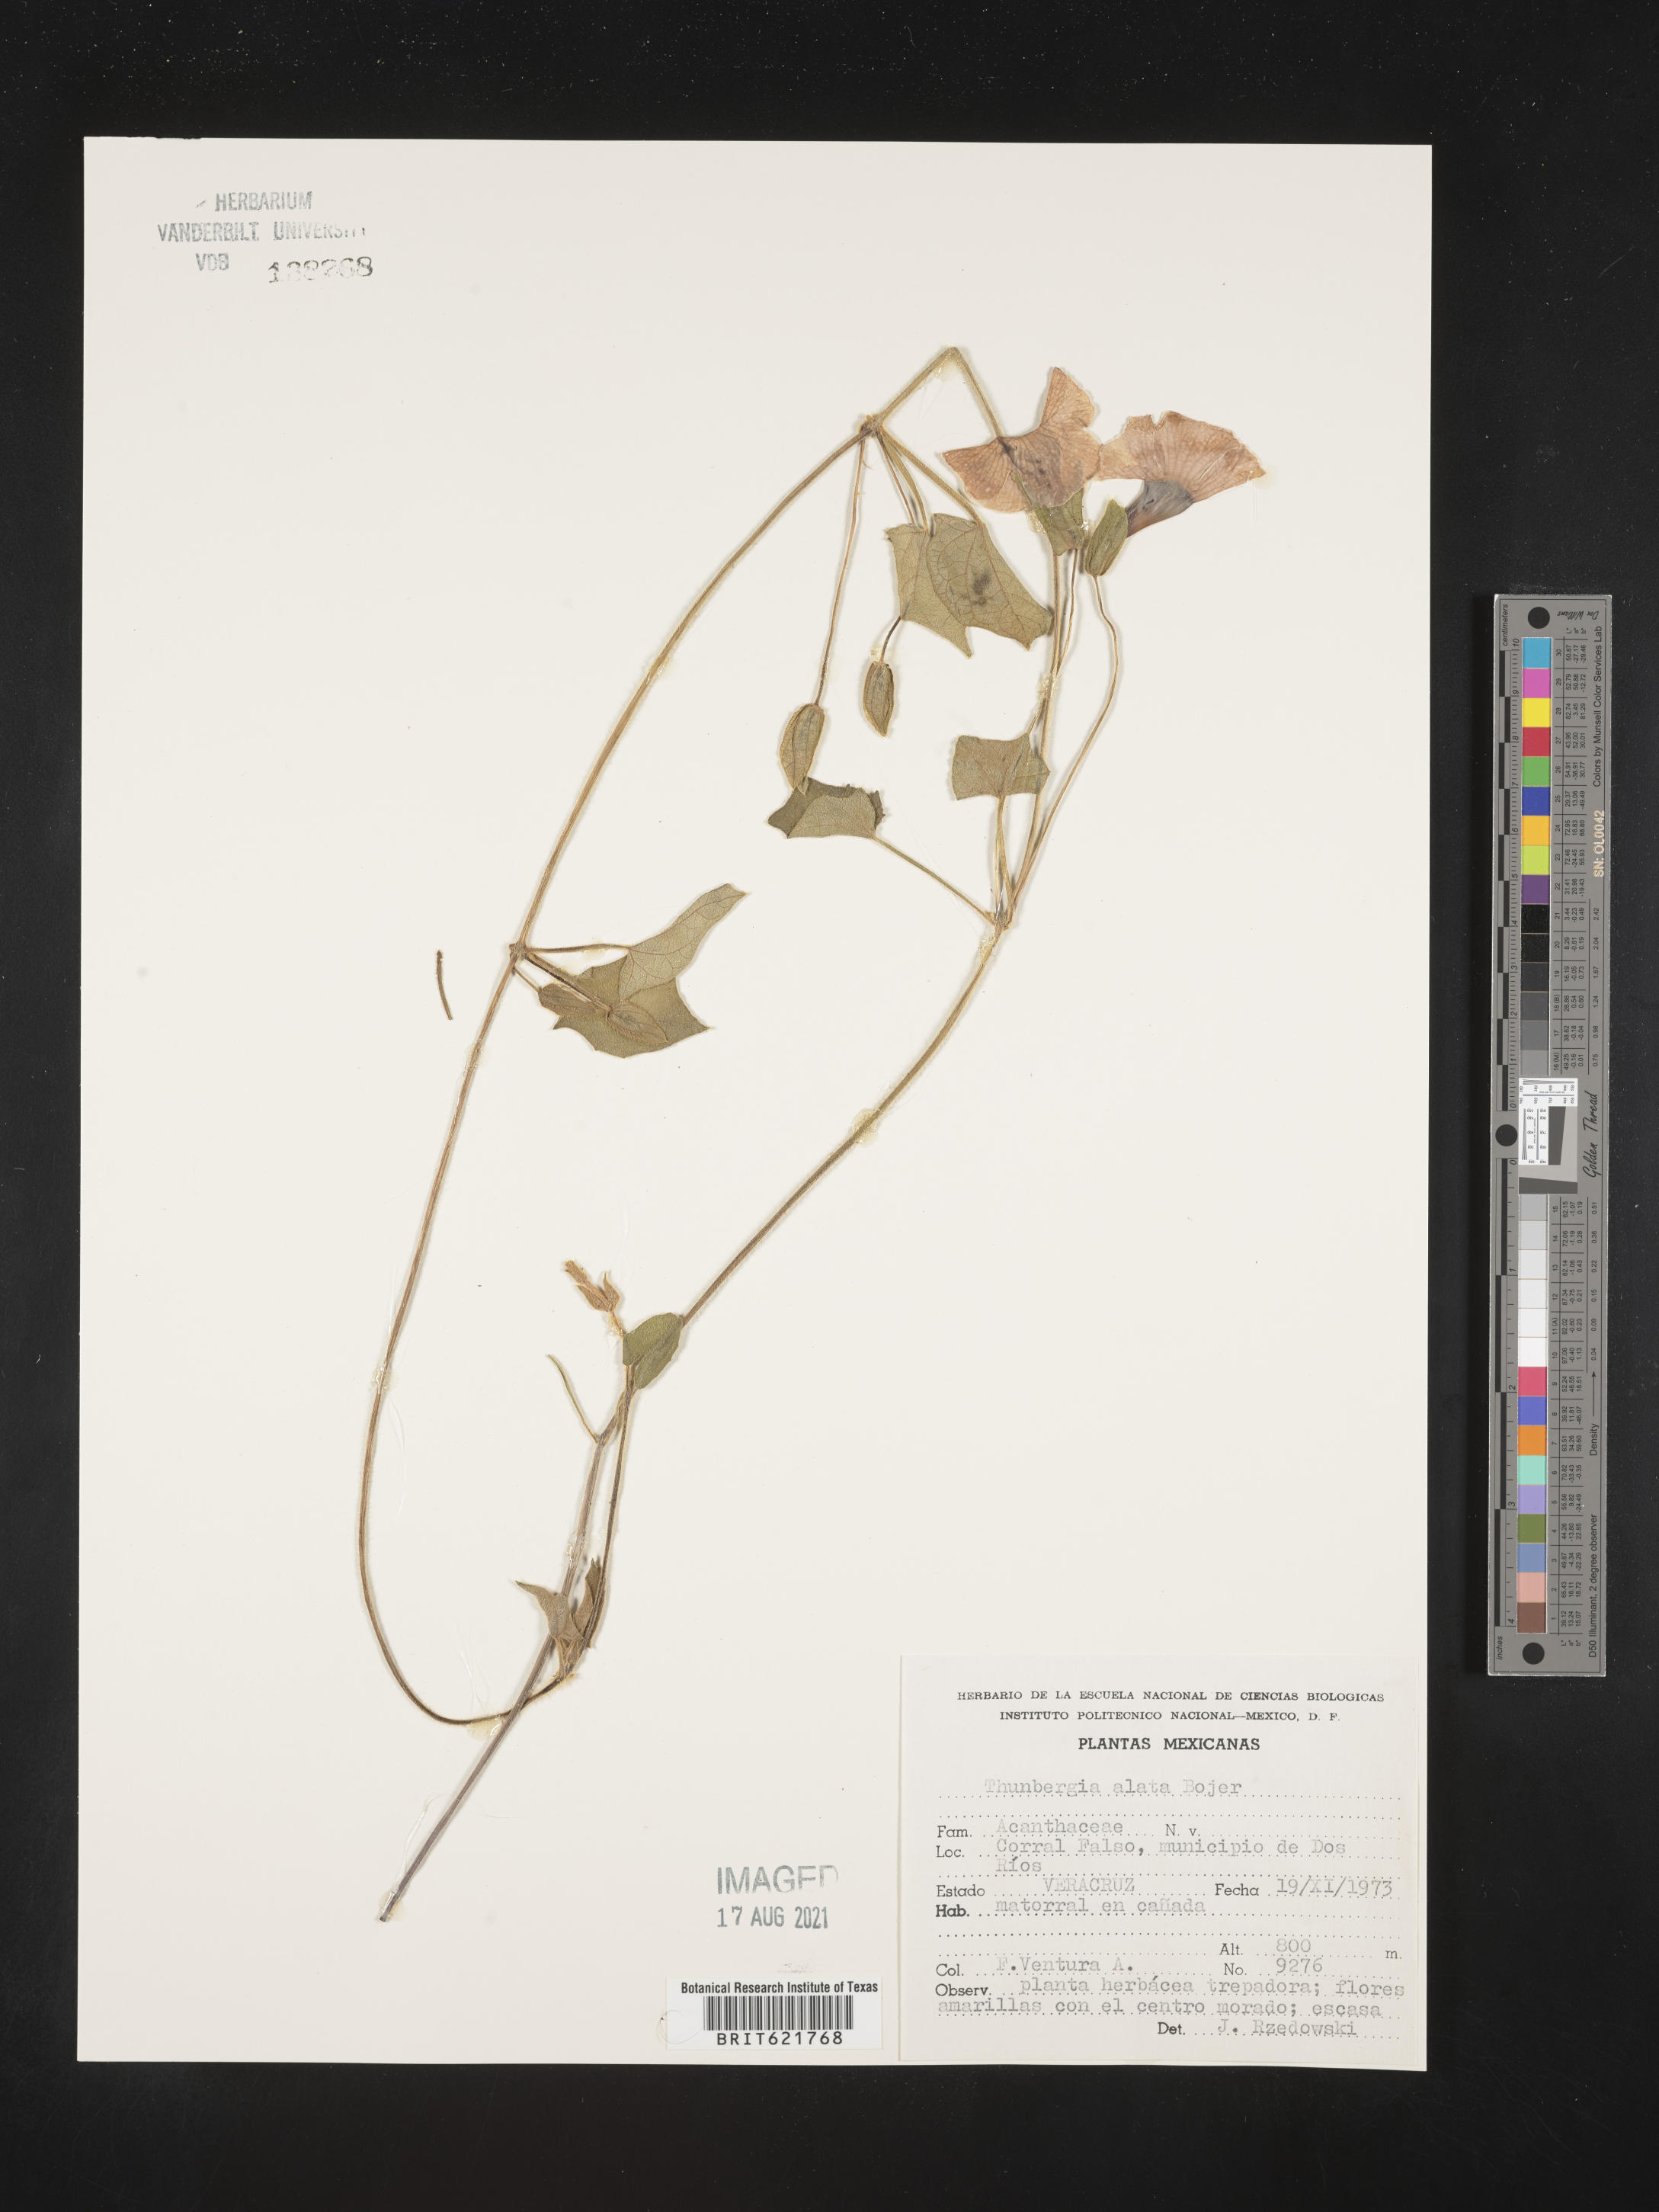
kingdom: Plantae
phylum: Tracheophyta
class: Magnoliopsida
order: Lamiales
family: Acanthaceae
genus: Thunbergia
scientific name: Thunbergia
